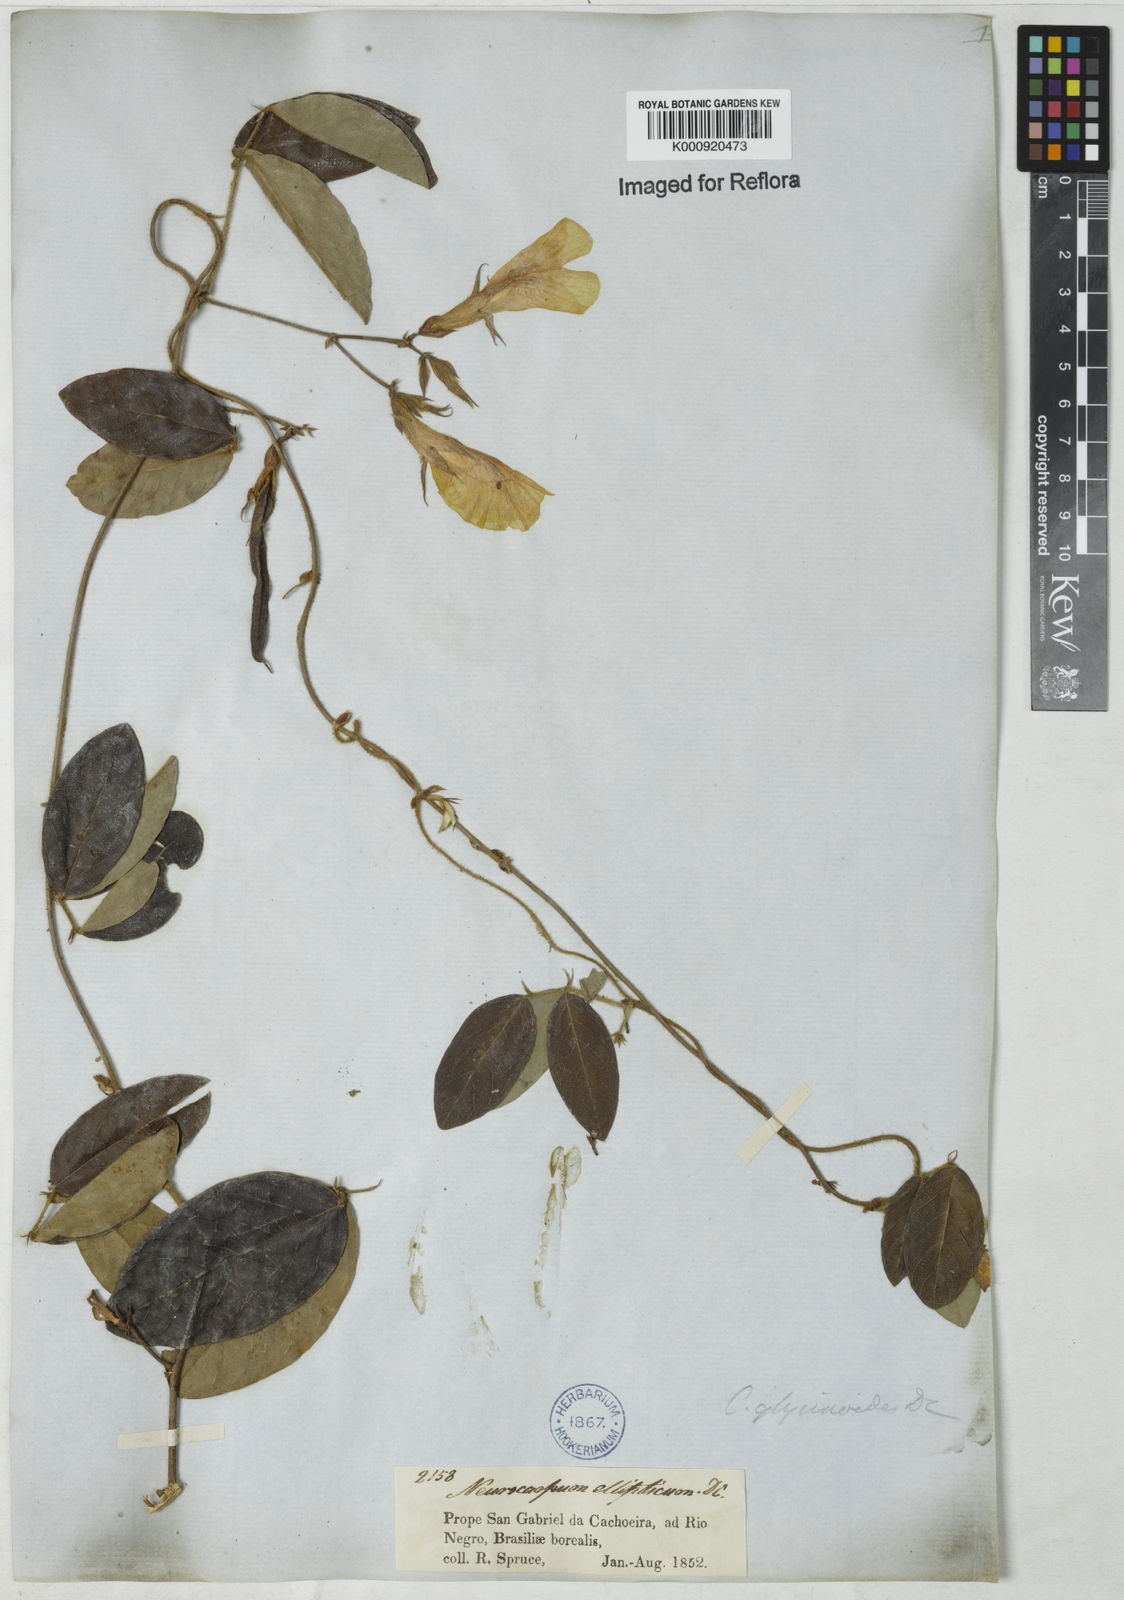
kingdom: Plantae
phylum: Tracheophyta
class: Magnoliopsida
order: Fabales
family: Fabaceae
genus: Clitoria
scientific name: Clitoria
